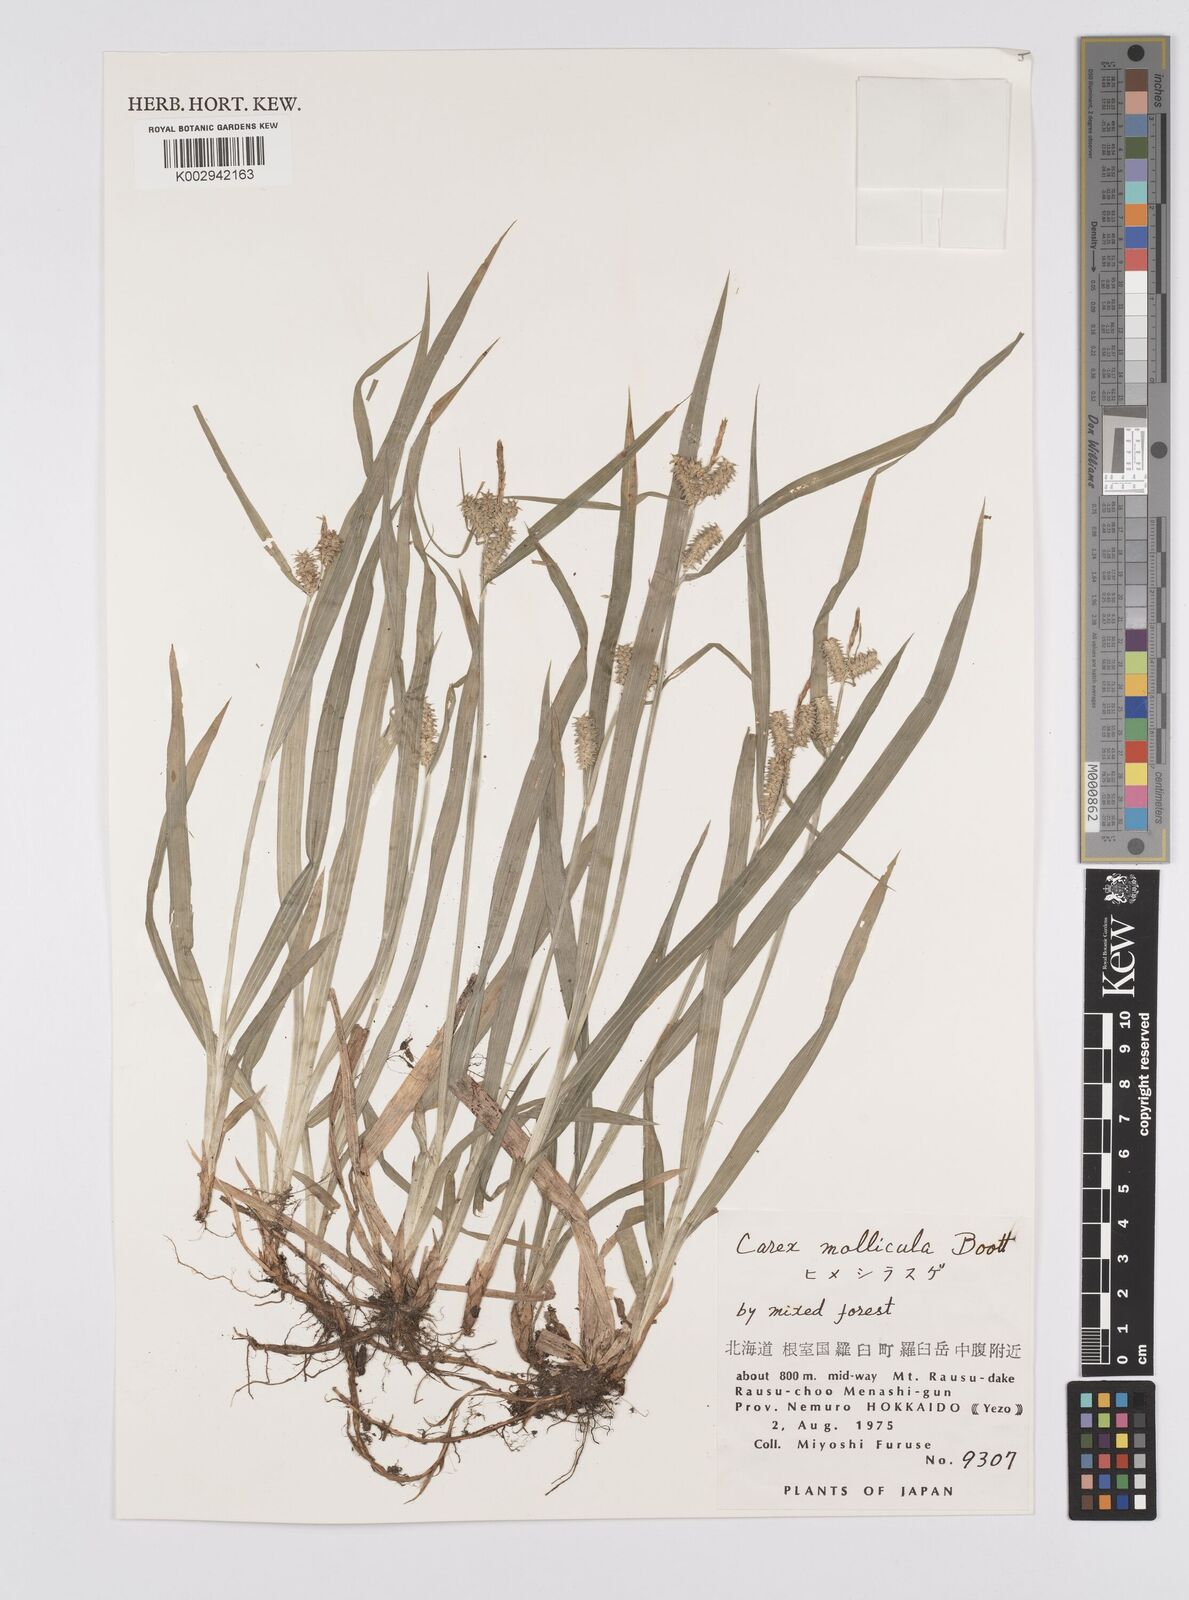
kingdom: Plantae
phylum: Tracheophyta
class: Liliopsida
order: Poales
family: Cyperaceae
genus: Carex
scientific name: Carex mollicula
